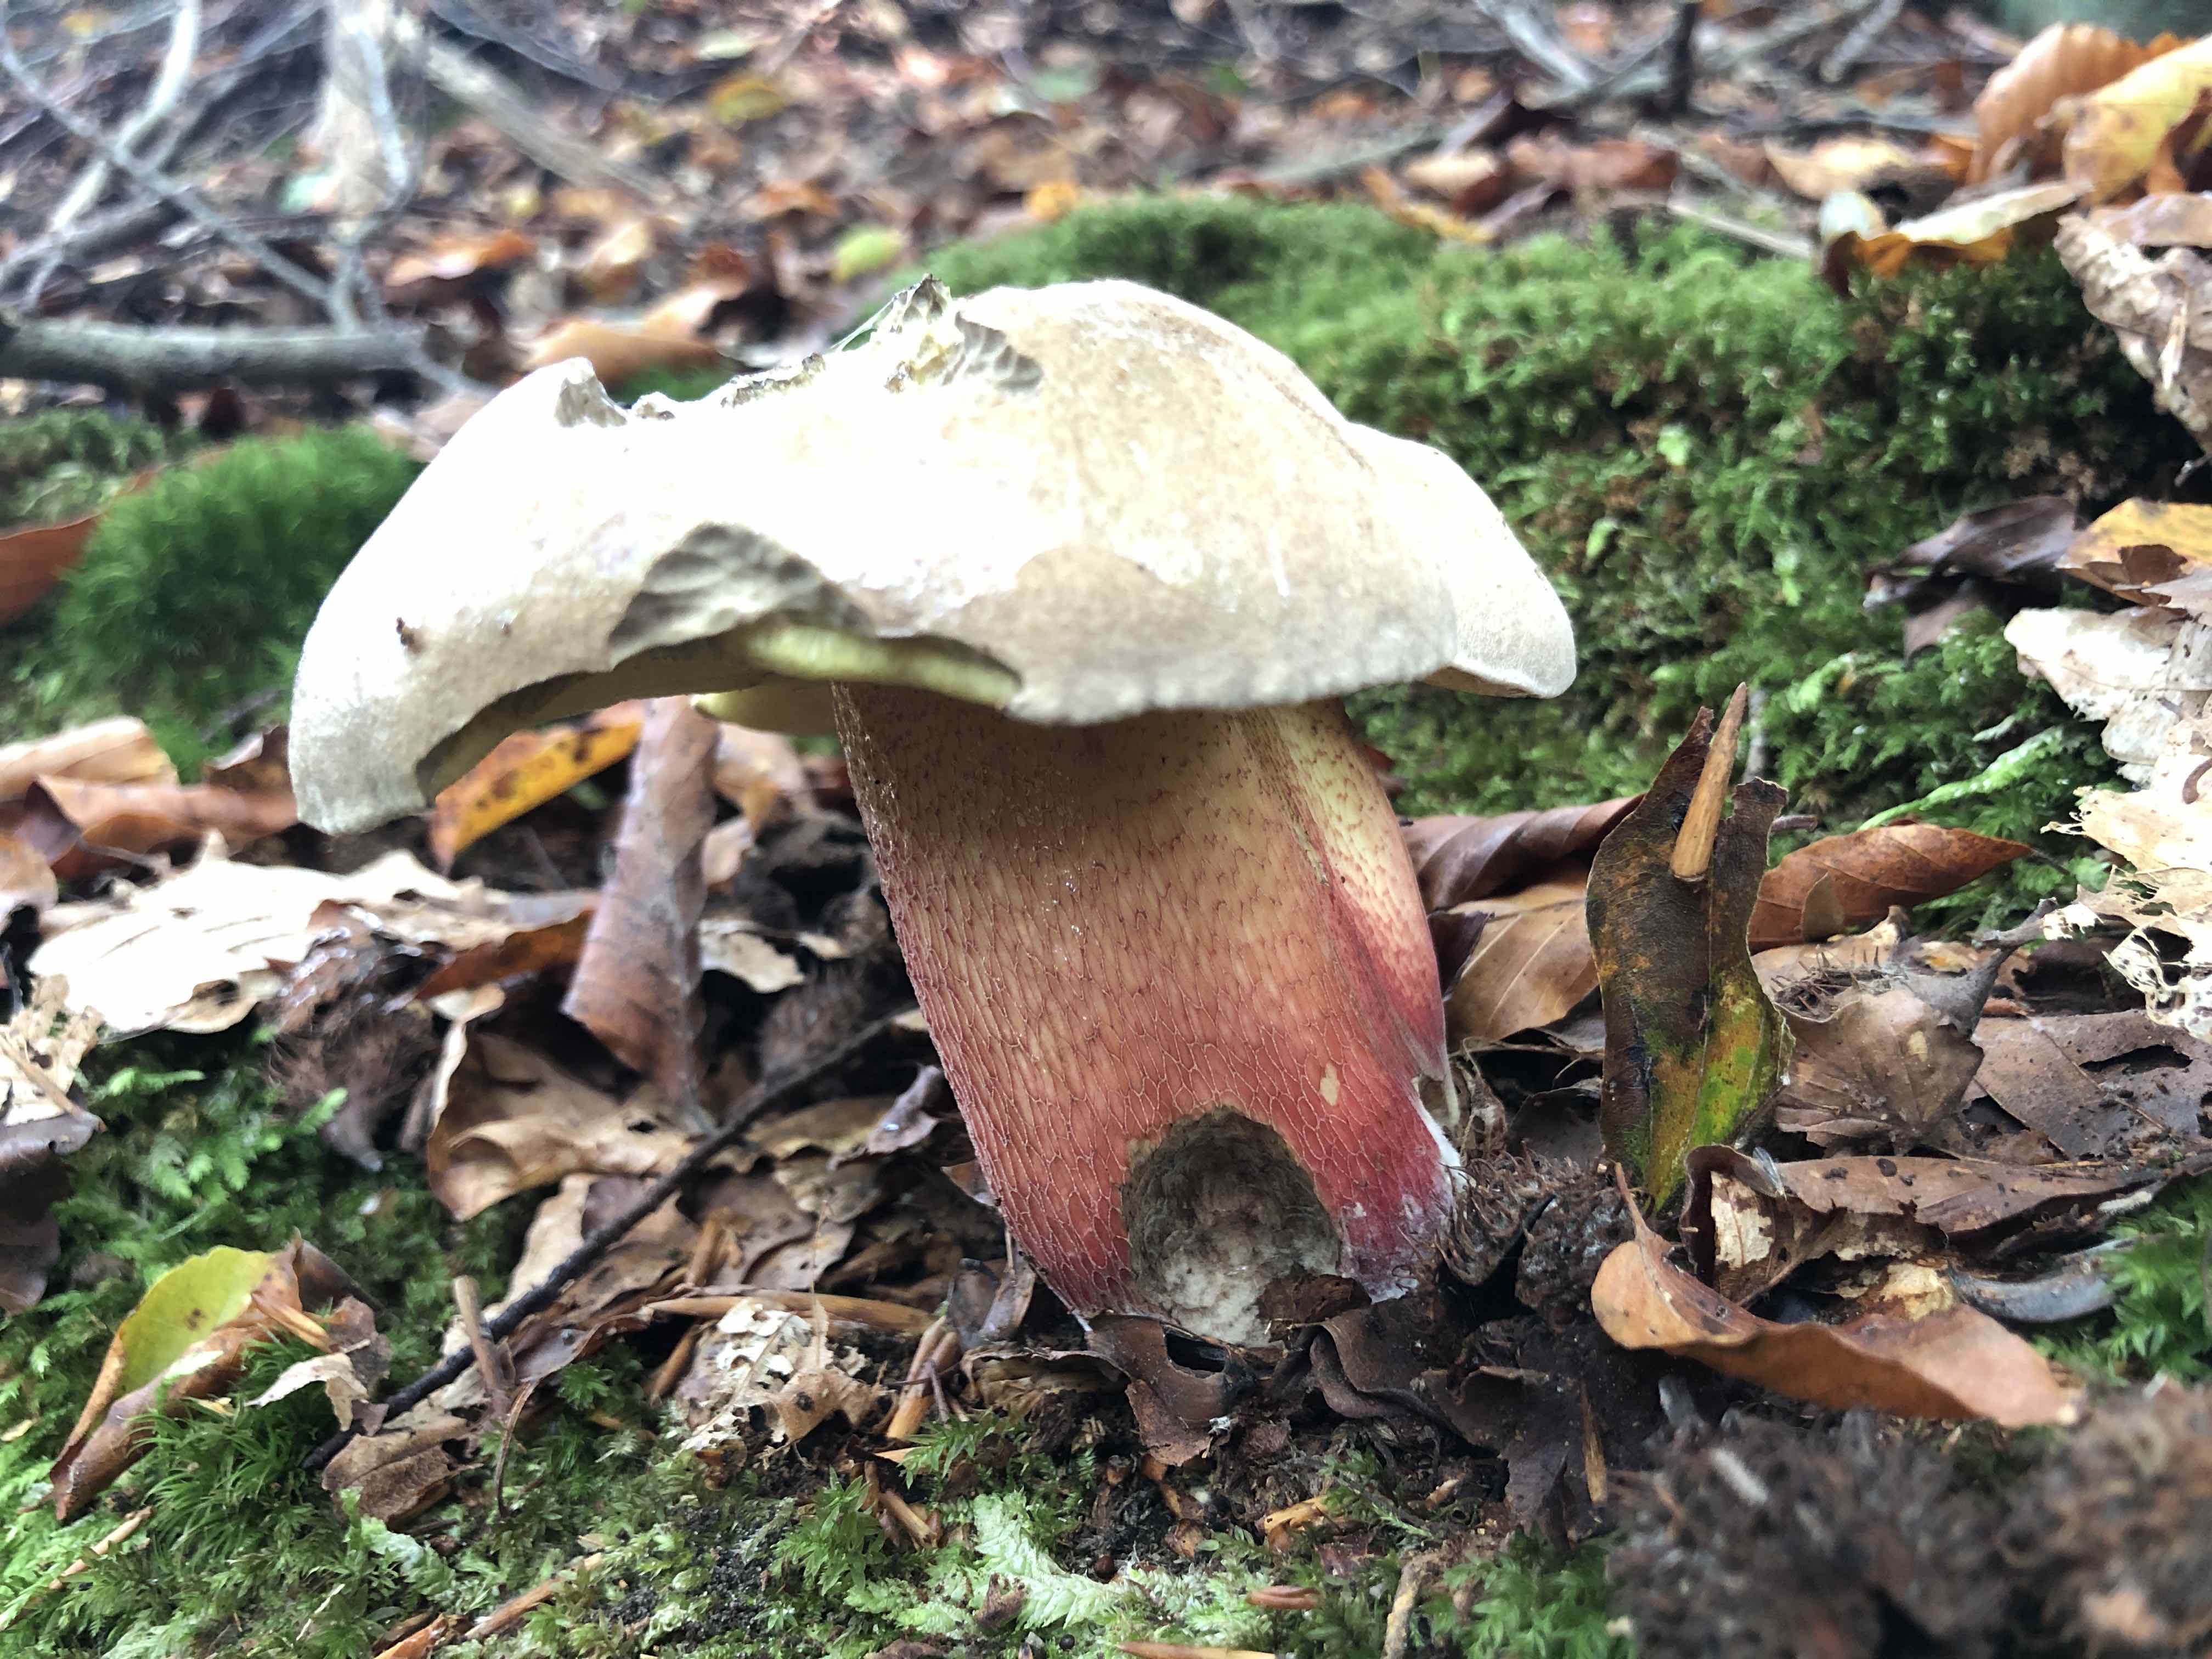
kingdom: Fungi
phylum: Basidiomycota
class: Agaricomycetes
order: Boletales
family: Boletaceae
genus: Caloboletus
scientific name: Caloboletus calopus
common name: skønfodet rørhat
